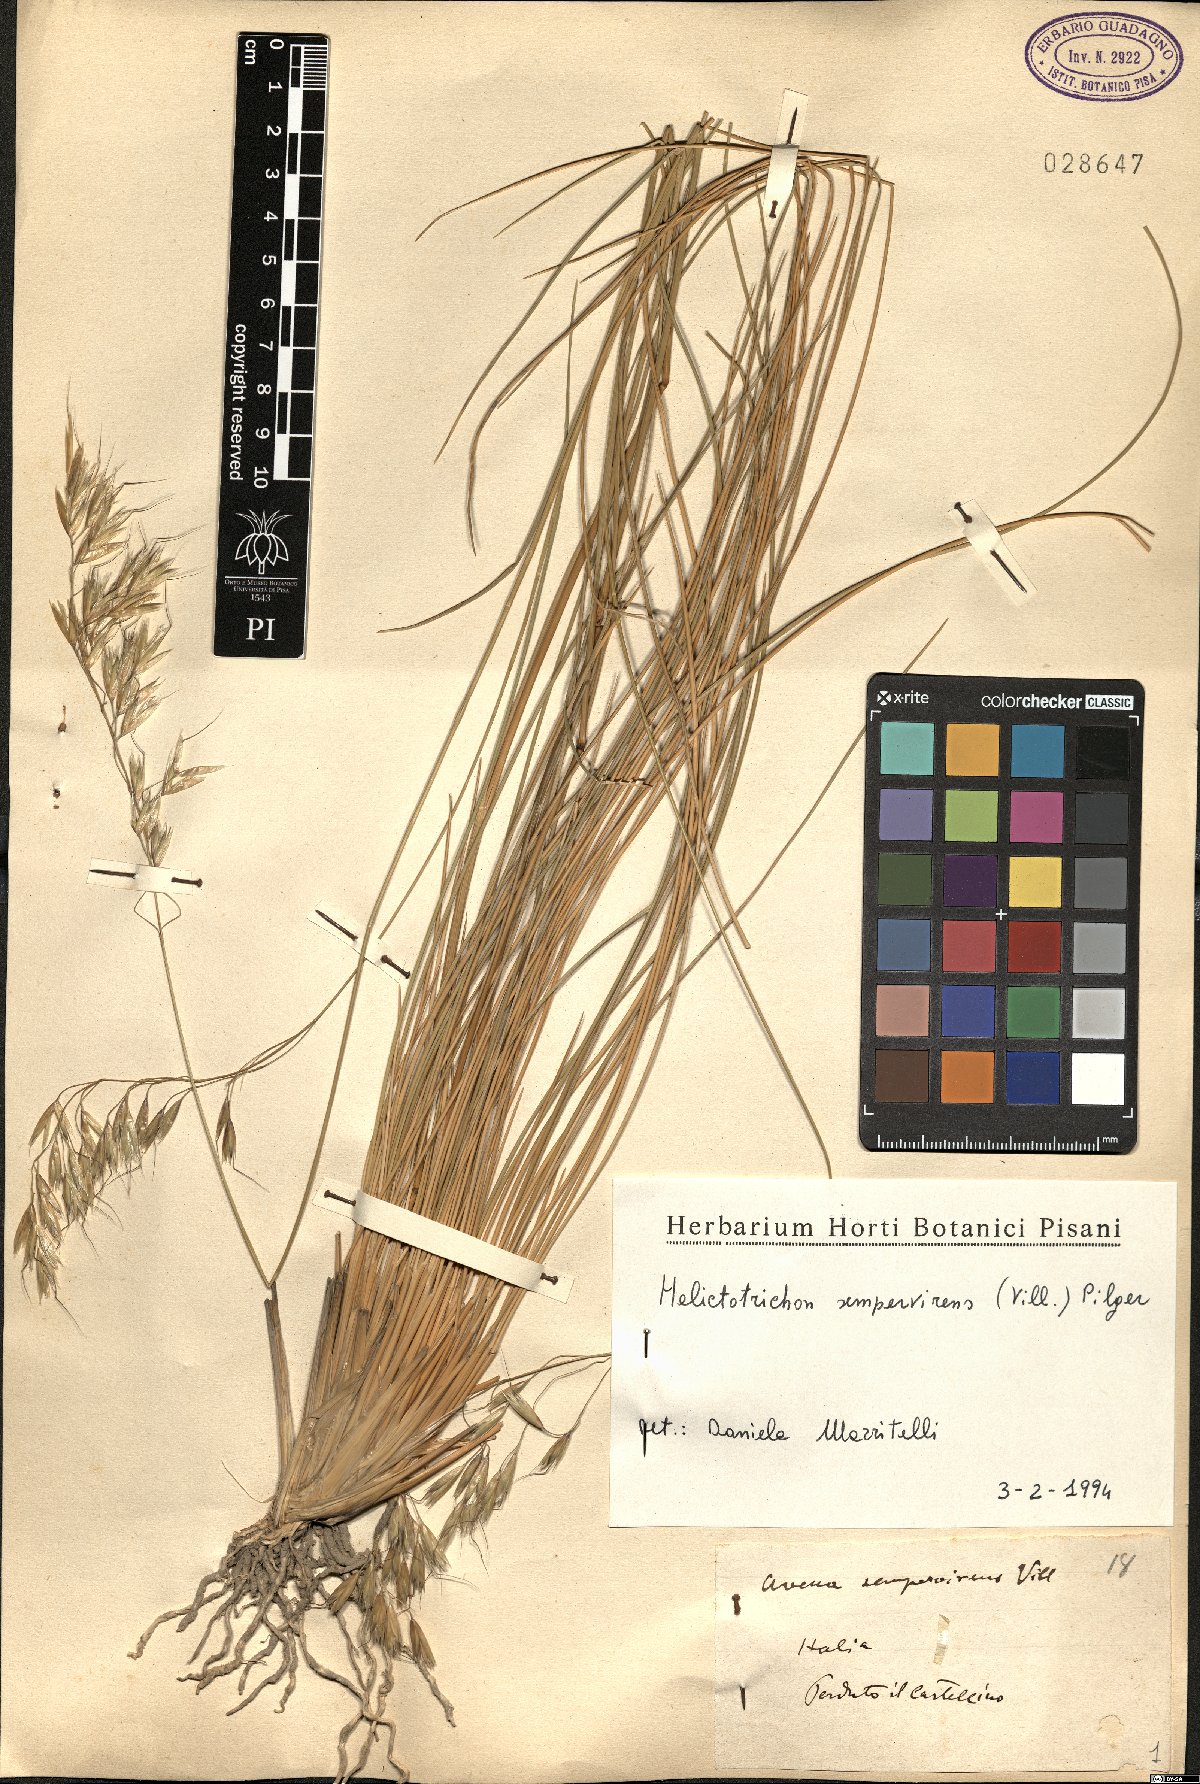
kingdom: Plantae
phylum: Tracheophyta
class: Liliopsida
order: Poales
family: Poaceae
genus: Helictotrichon
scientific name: Helictotrichon sempervirens
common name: Blue oat-grass
